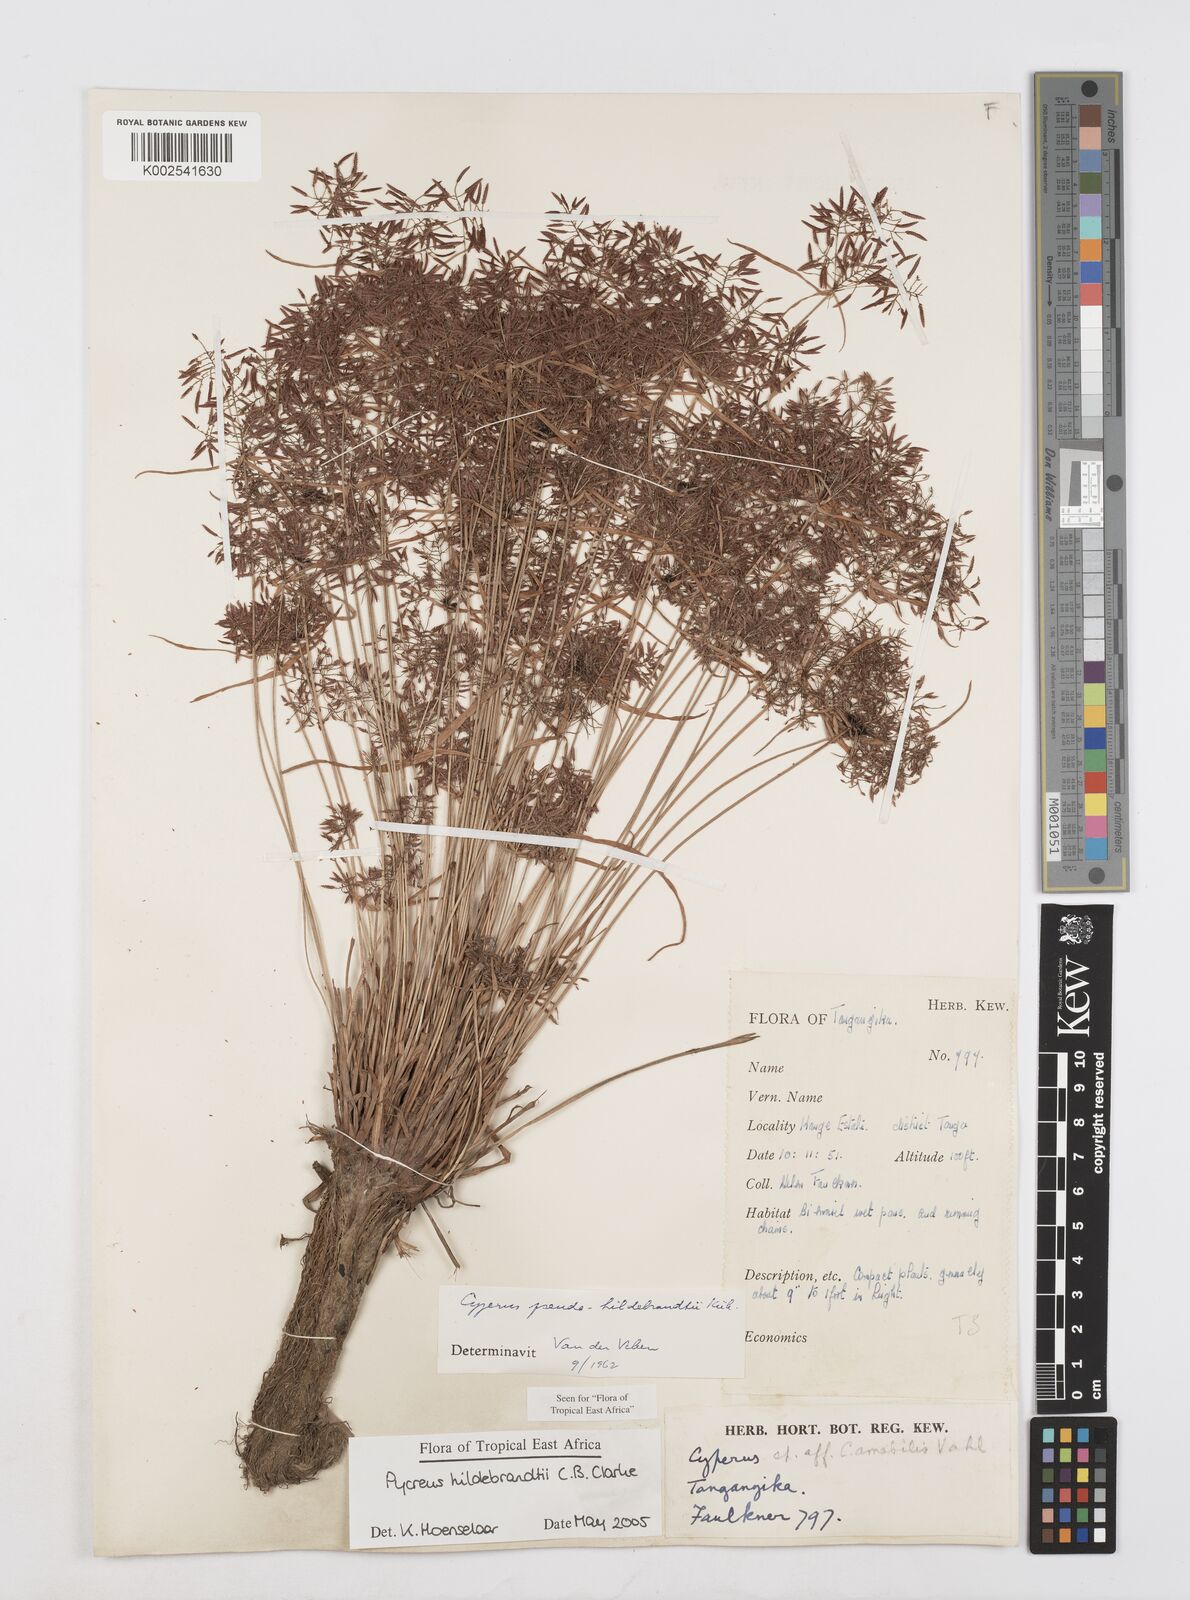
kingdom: Plantae
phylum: Tracheophyta
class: Liliopsida
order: Poales
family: Cyperaceae
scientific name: Cyperaceae
